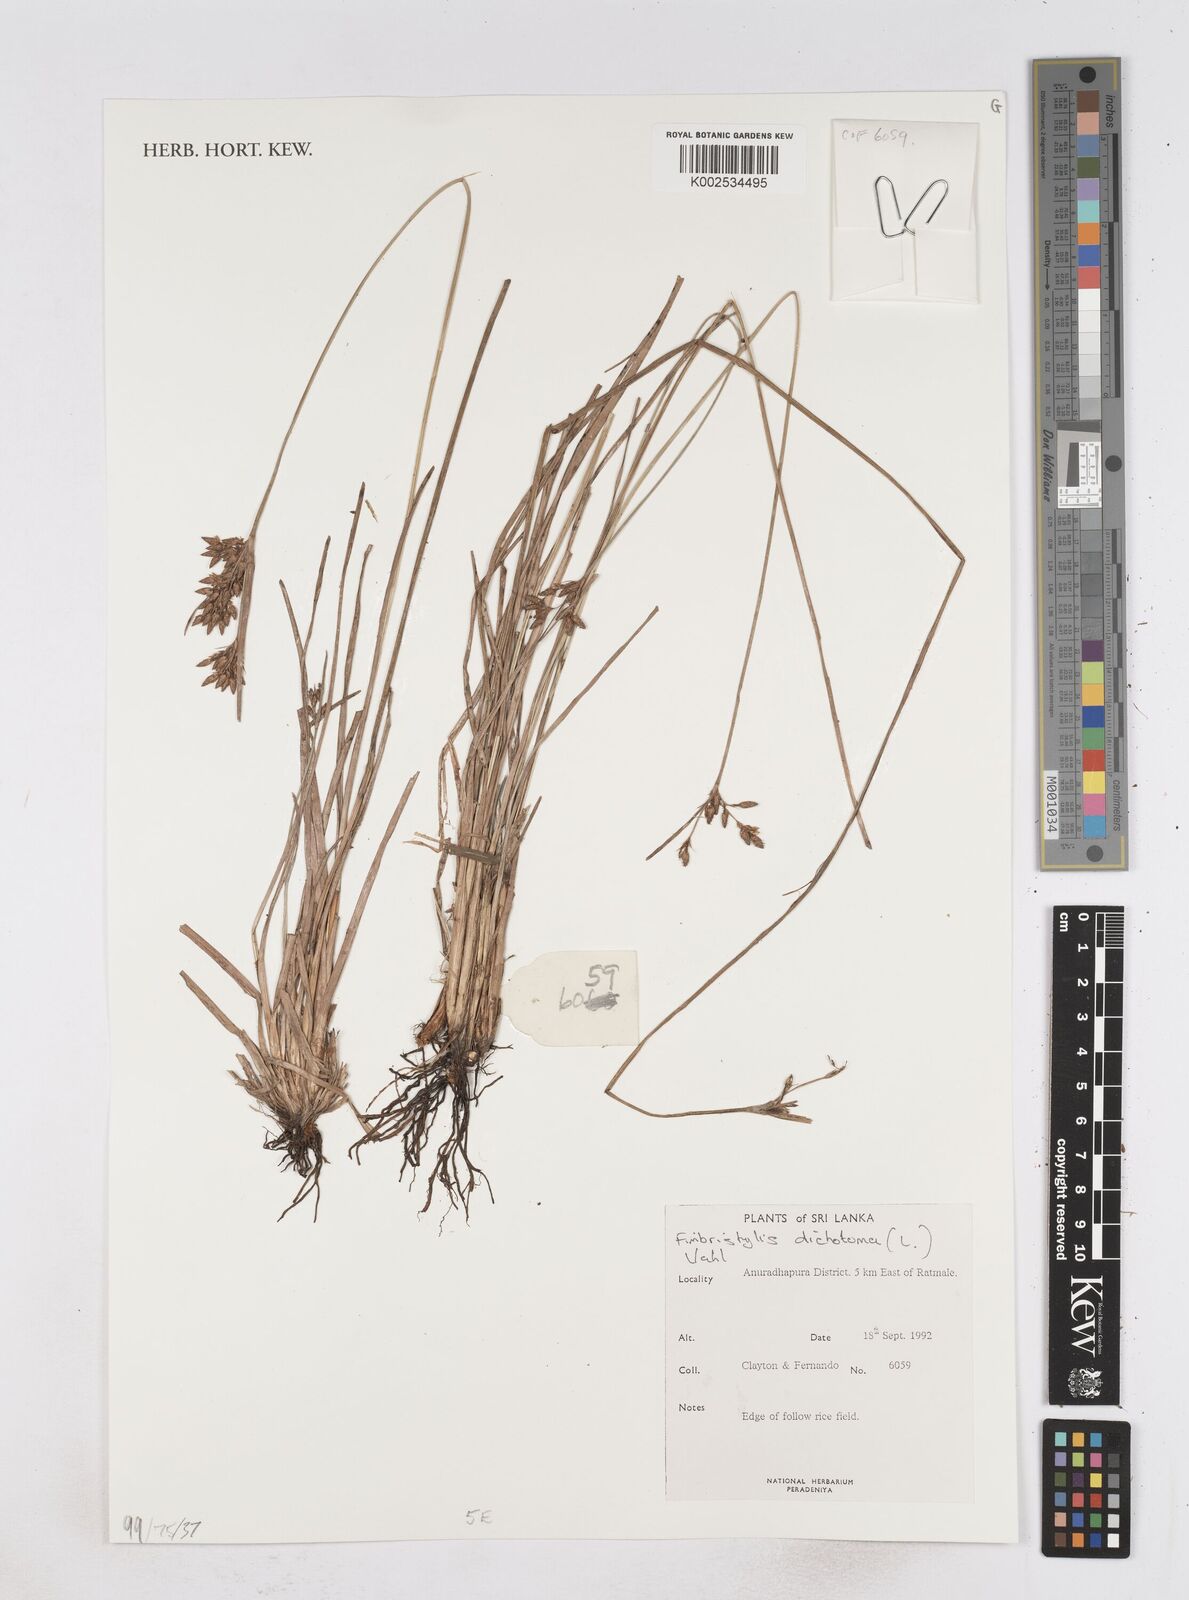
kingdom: Plantae
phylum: Tracheophyta
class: Liliopsida
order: Poales
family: Cyperaceae
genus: Fimbristylis
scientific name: Fimbristylis dura
